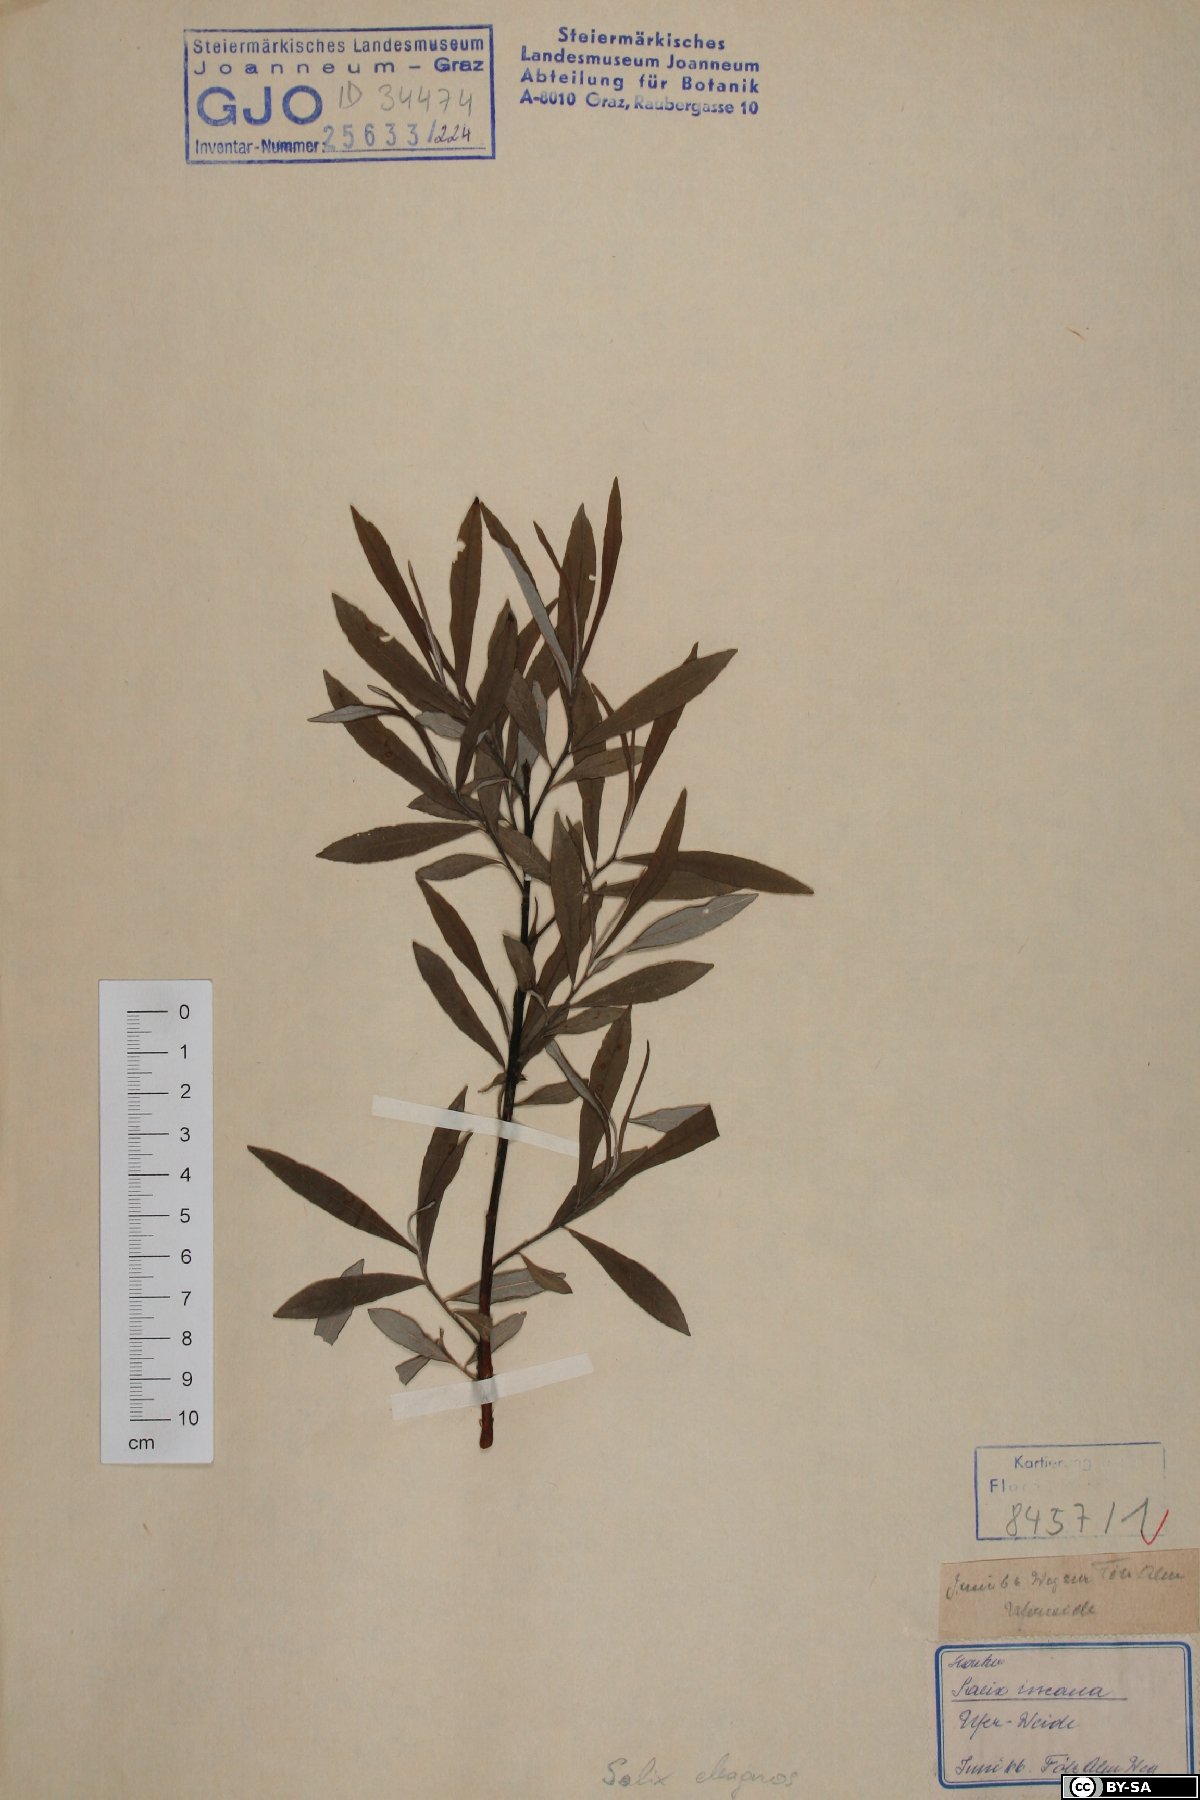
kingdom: Plantae
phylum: Tracheophyta
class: Magnoliopsida
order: Malpighiales
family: Salicaceae
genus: Salix
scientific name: Salix eleagnos
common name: Elaeagnus willow
